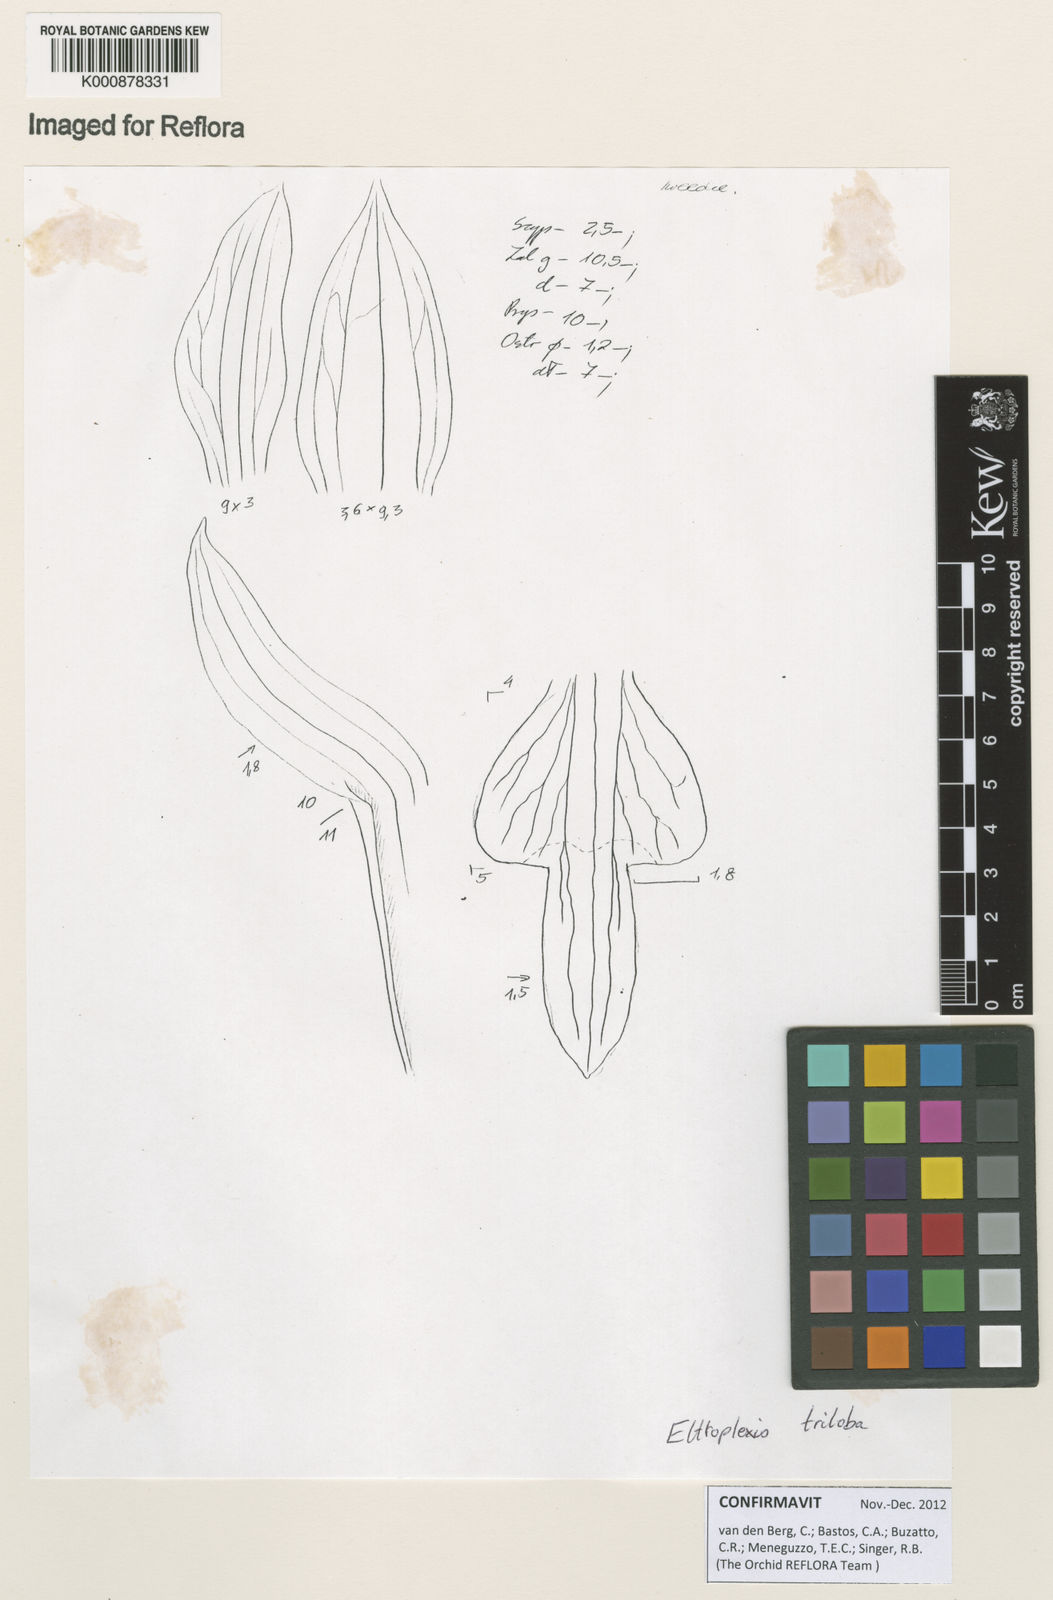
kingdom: Plantae
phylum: Tracheophyta
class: Liliopsida
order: Asparagales
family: Orchidaceae
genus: Eltroplectris
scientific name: Eltroplectris triloba
